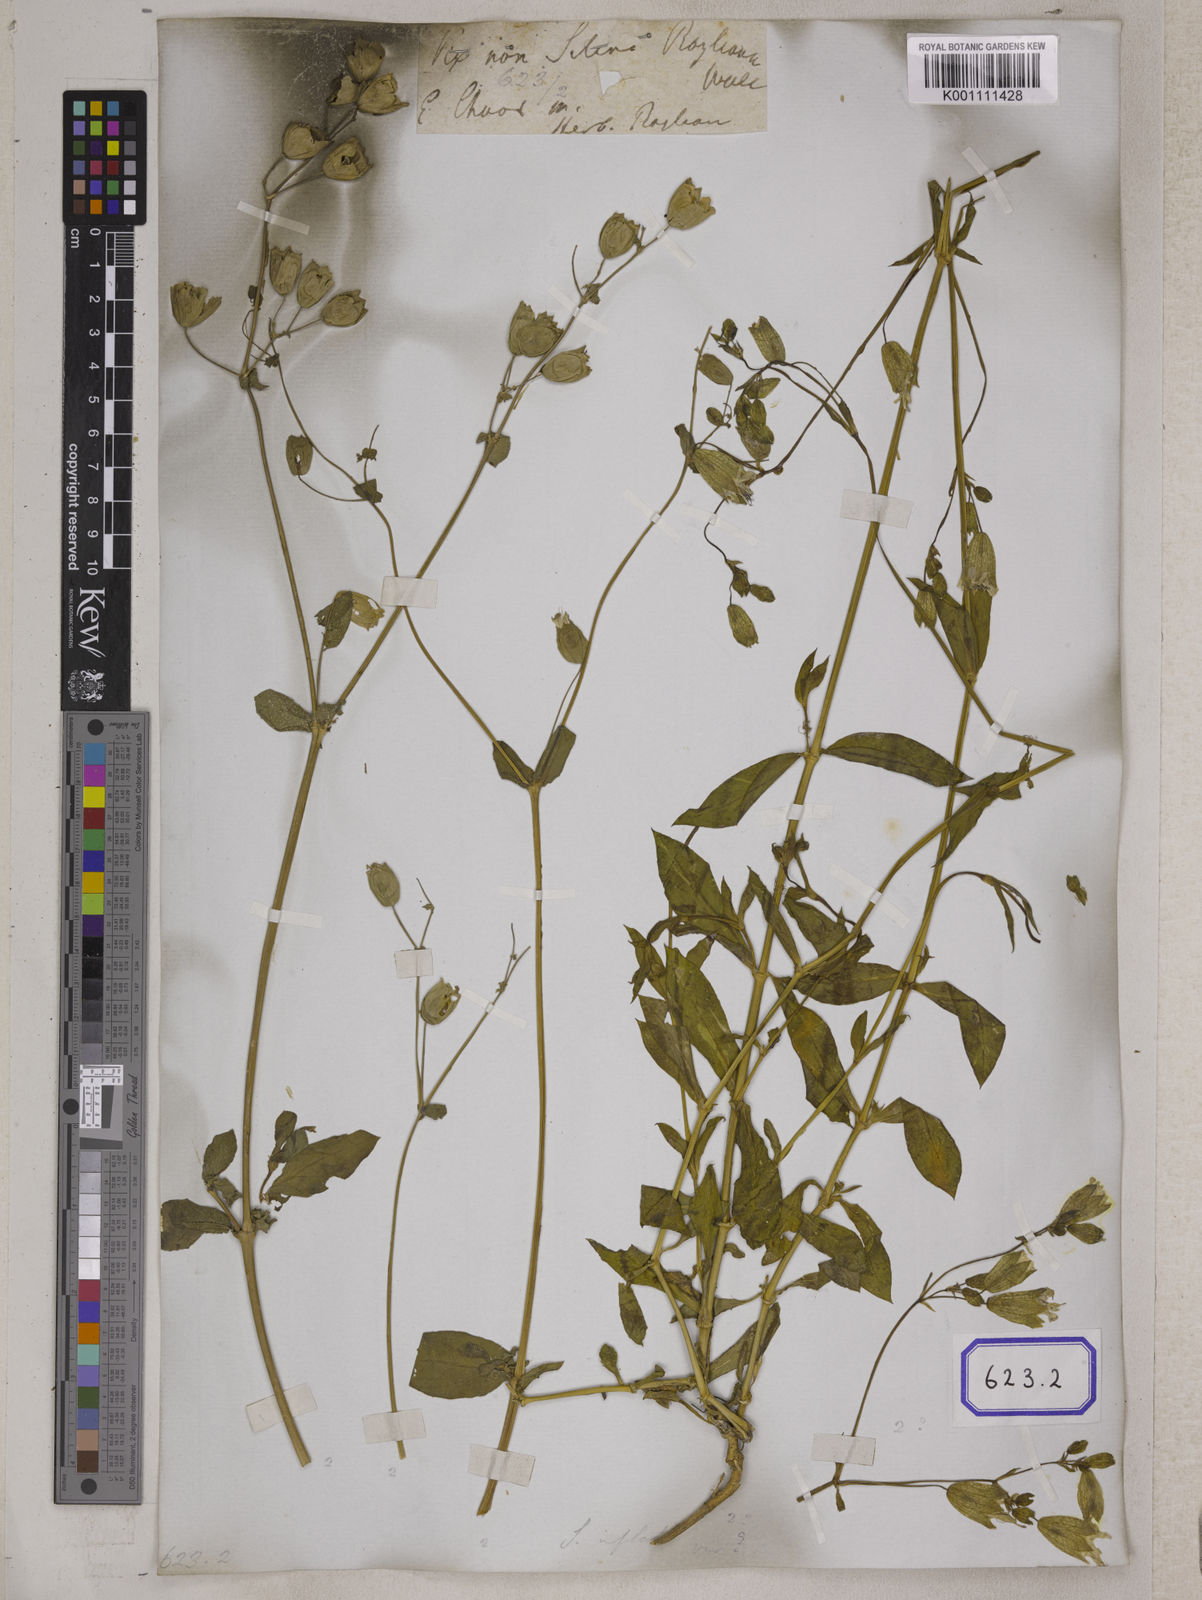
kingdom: Plantae
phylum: Tracheophyta
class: Magnoliopsida
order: Caryophyllales
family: Caryophyllaceae
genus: Silene
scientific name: Silene vulgaris
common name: Bladder campion
